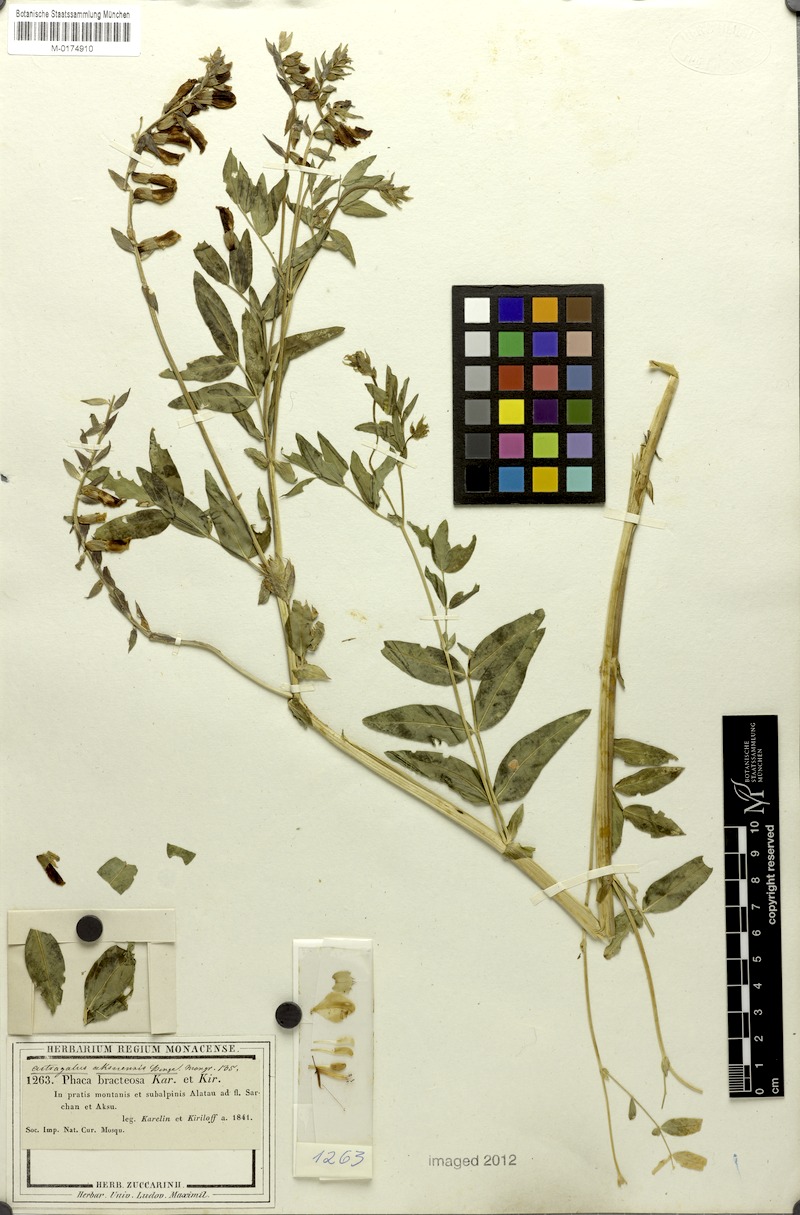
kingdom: Plantae
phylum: Tracheophyta
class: Magnoliopsida
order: Fabales
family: Fabaceae
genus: Astragalus
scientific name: Astragalus aksuensis
